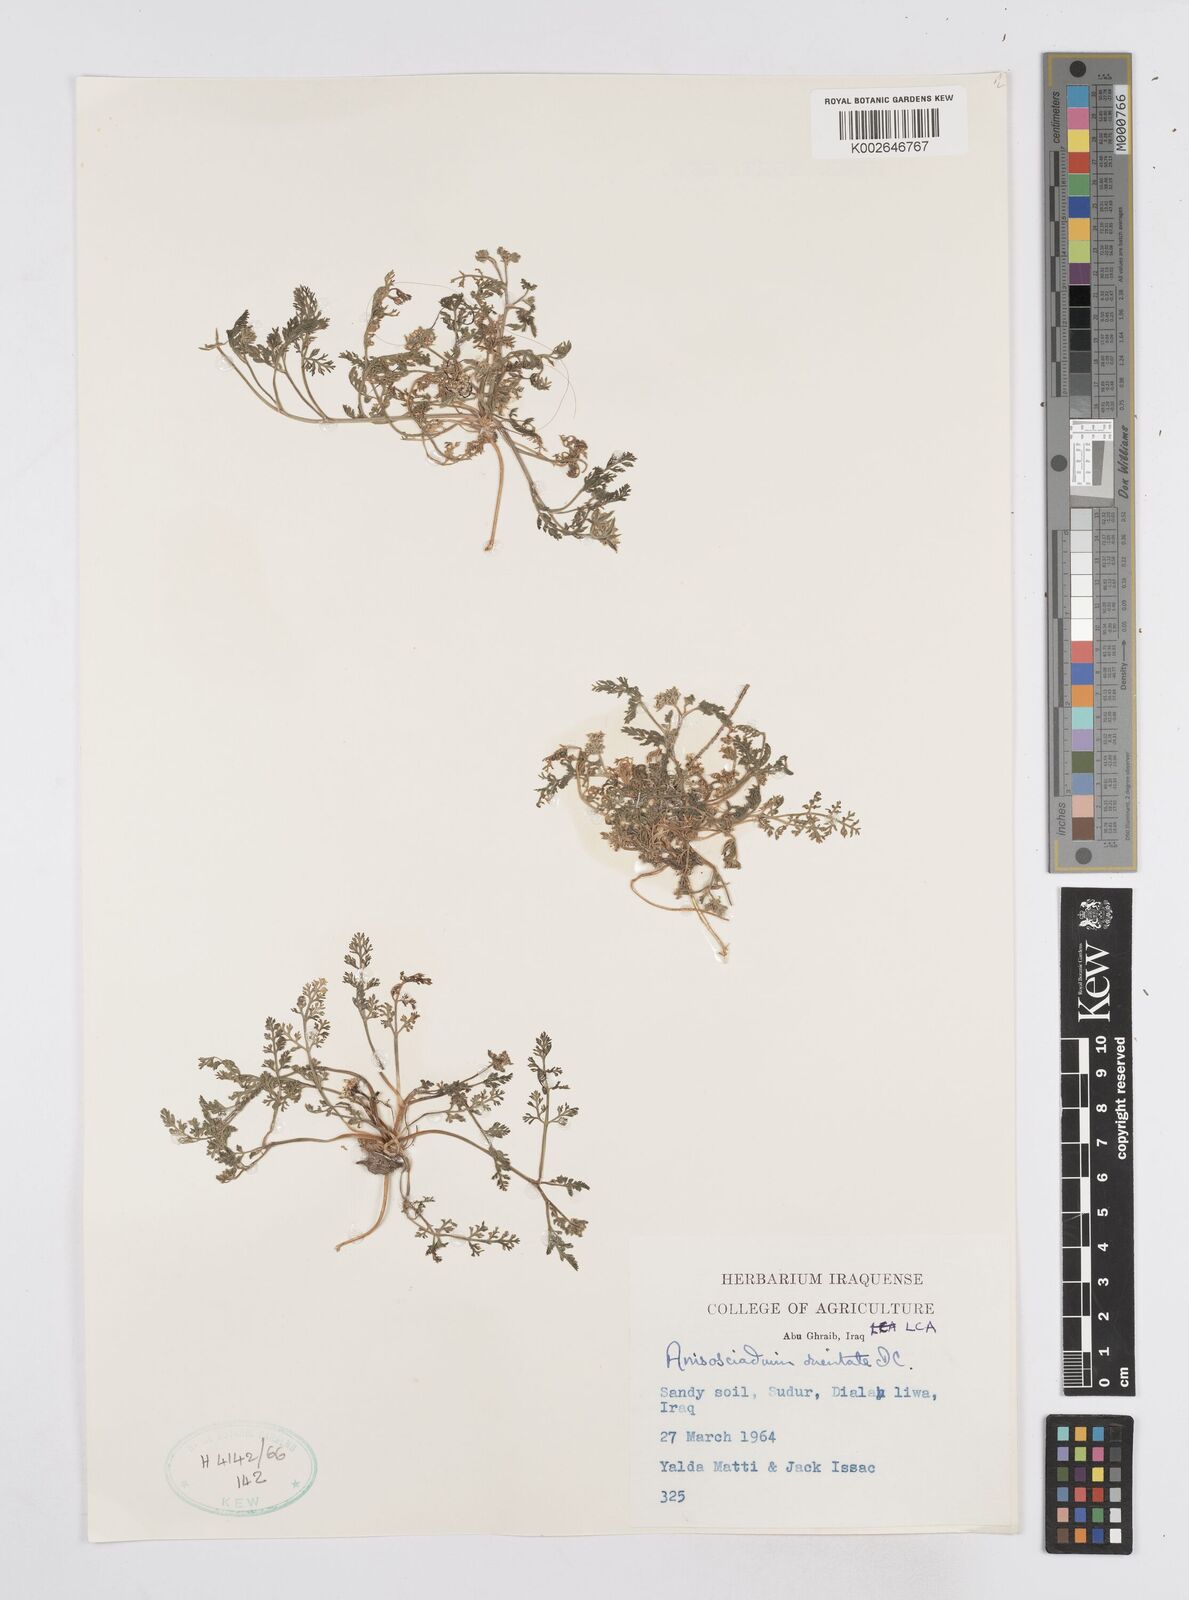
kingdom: Plantae
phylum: Tracheophyta
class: Magnoliopsida
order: Apiales
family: Apiaceae
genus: Anisosciadium
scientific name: Anisosciadium orientale
